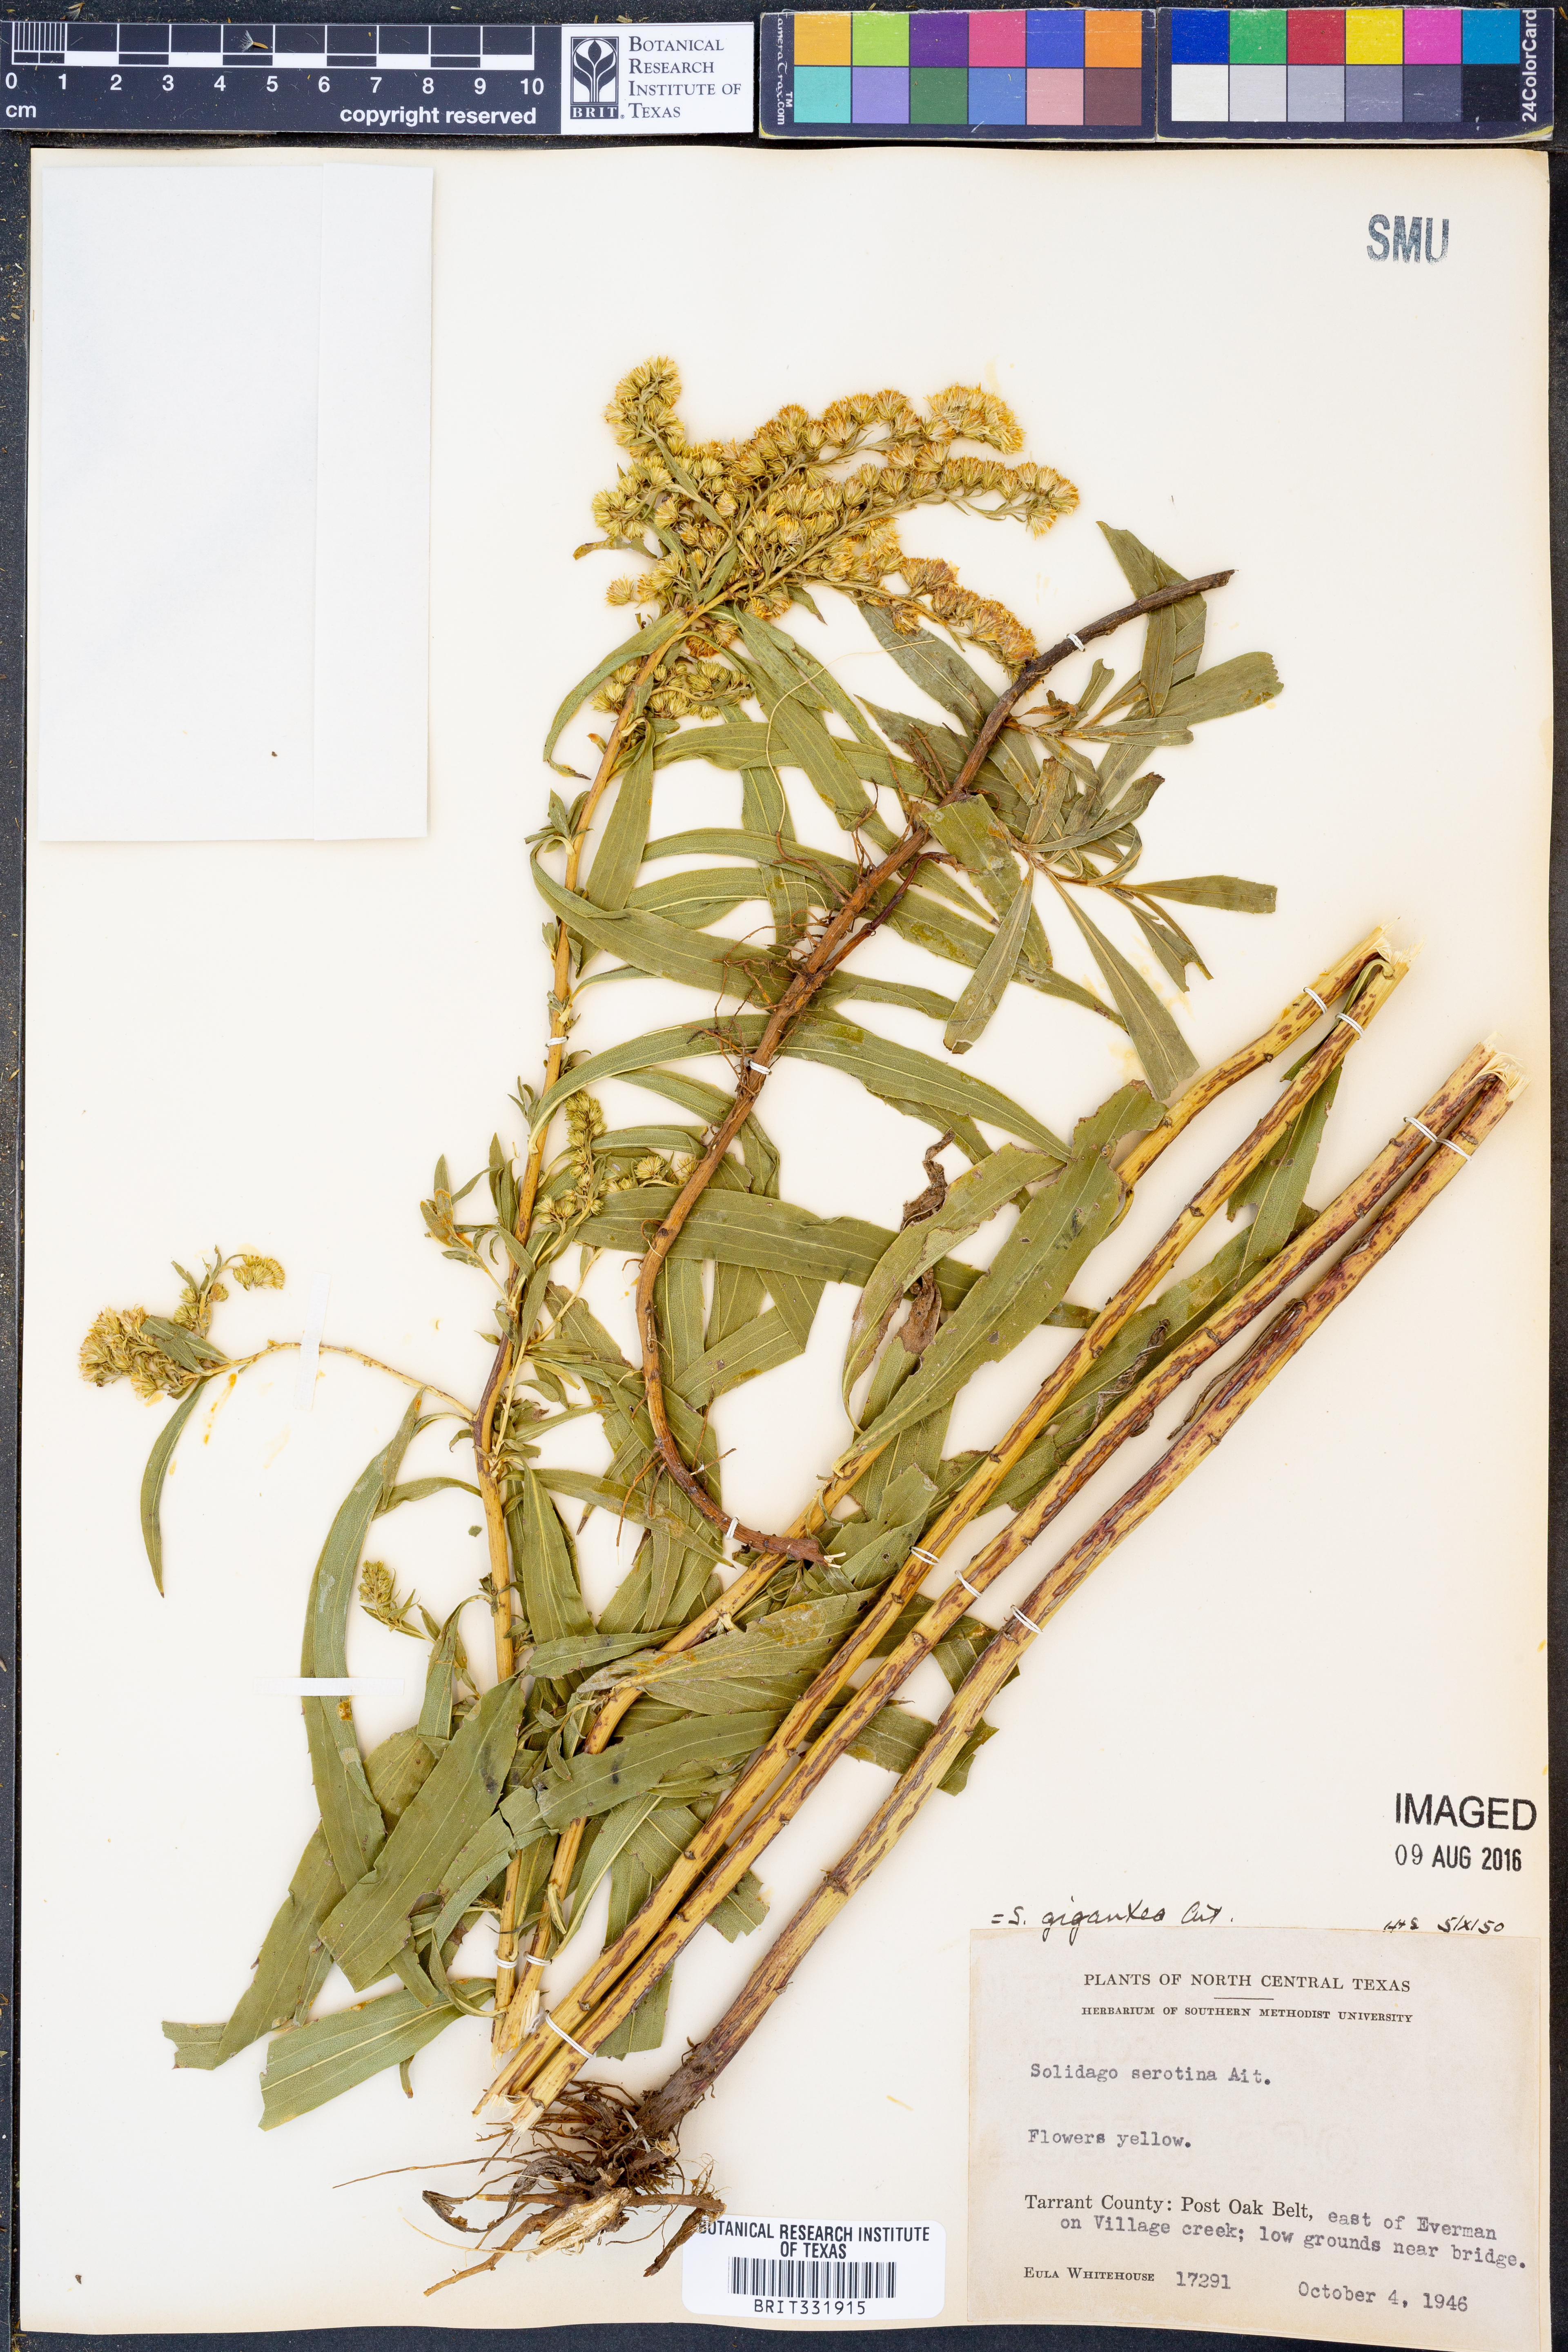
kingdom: Plantae
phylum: Tracheophyta
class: Magnoliopsida
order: Asterales
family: Asteraceae
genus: Solidago
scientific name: Solidago gigantea
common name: Giant goldenrod
